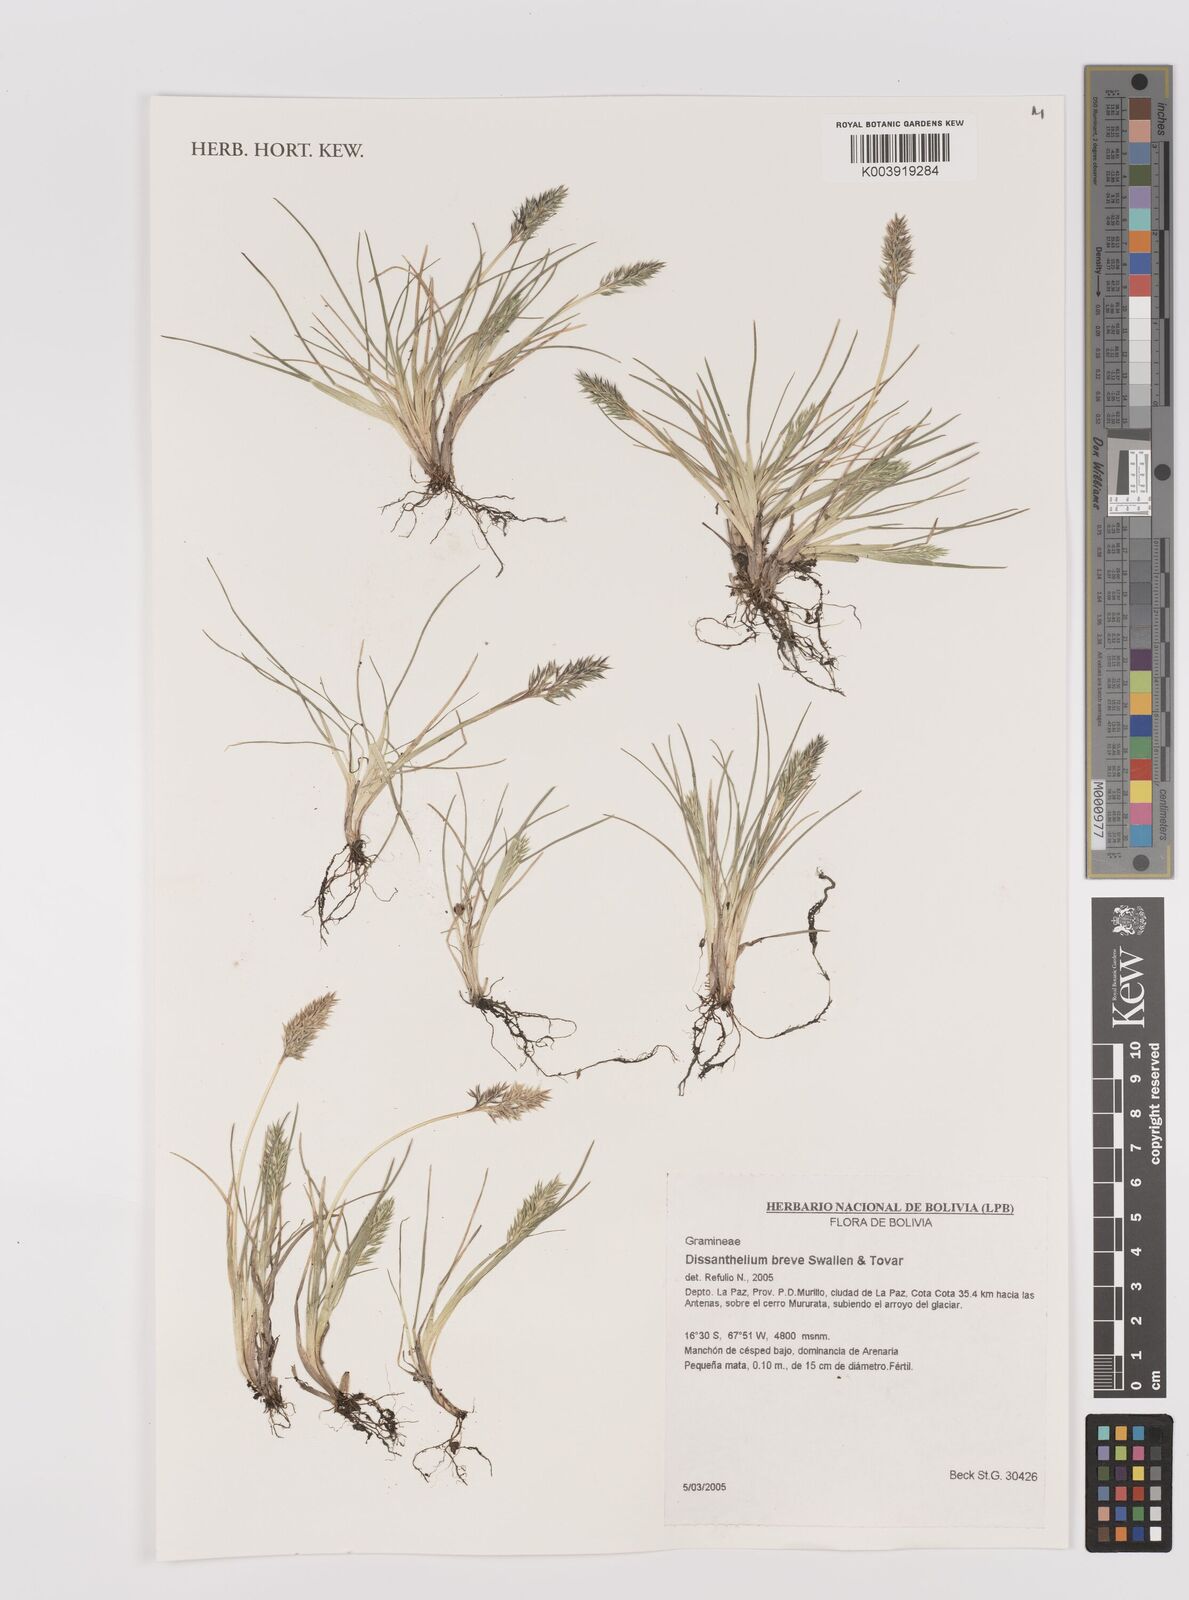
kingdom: Plantae
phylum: Tracheophyta
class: Liliopsida
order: Poales
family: Poaceae
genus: Poa
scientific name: Poa calycina
